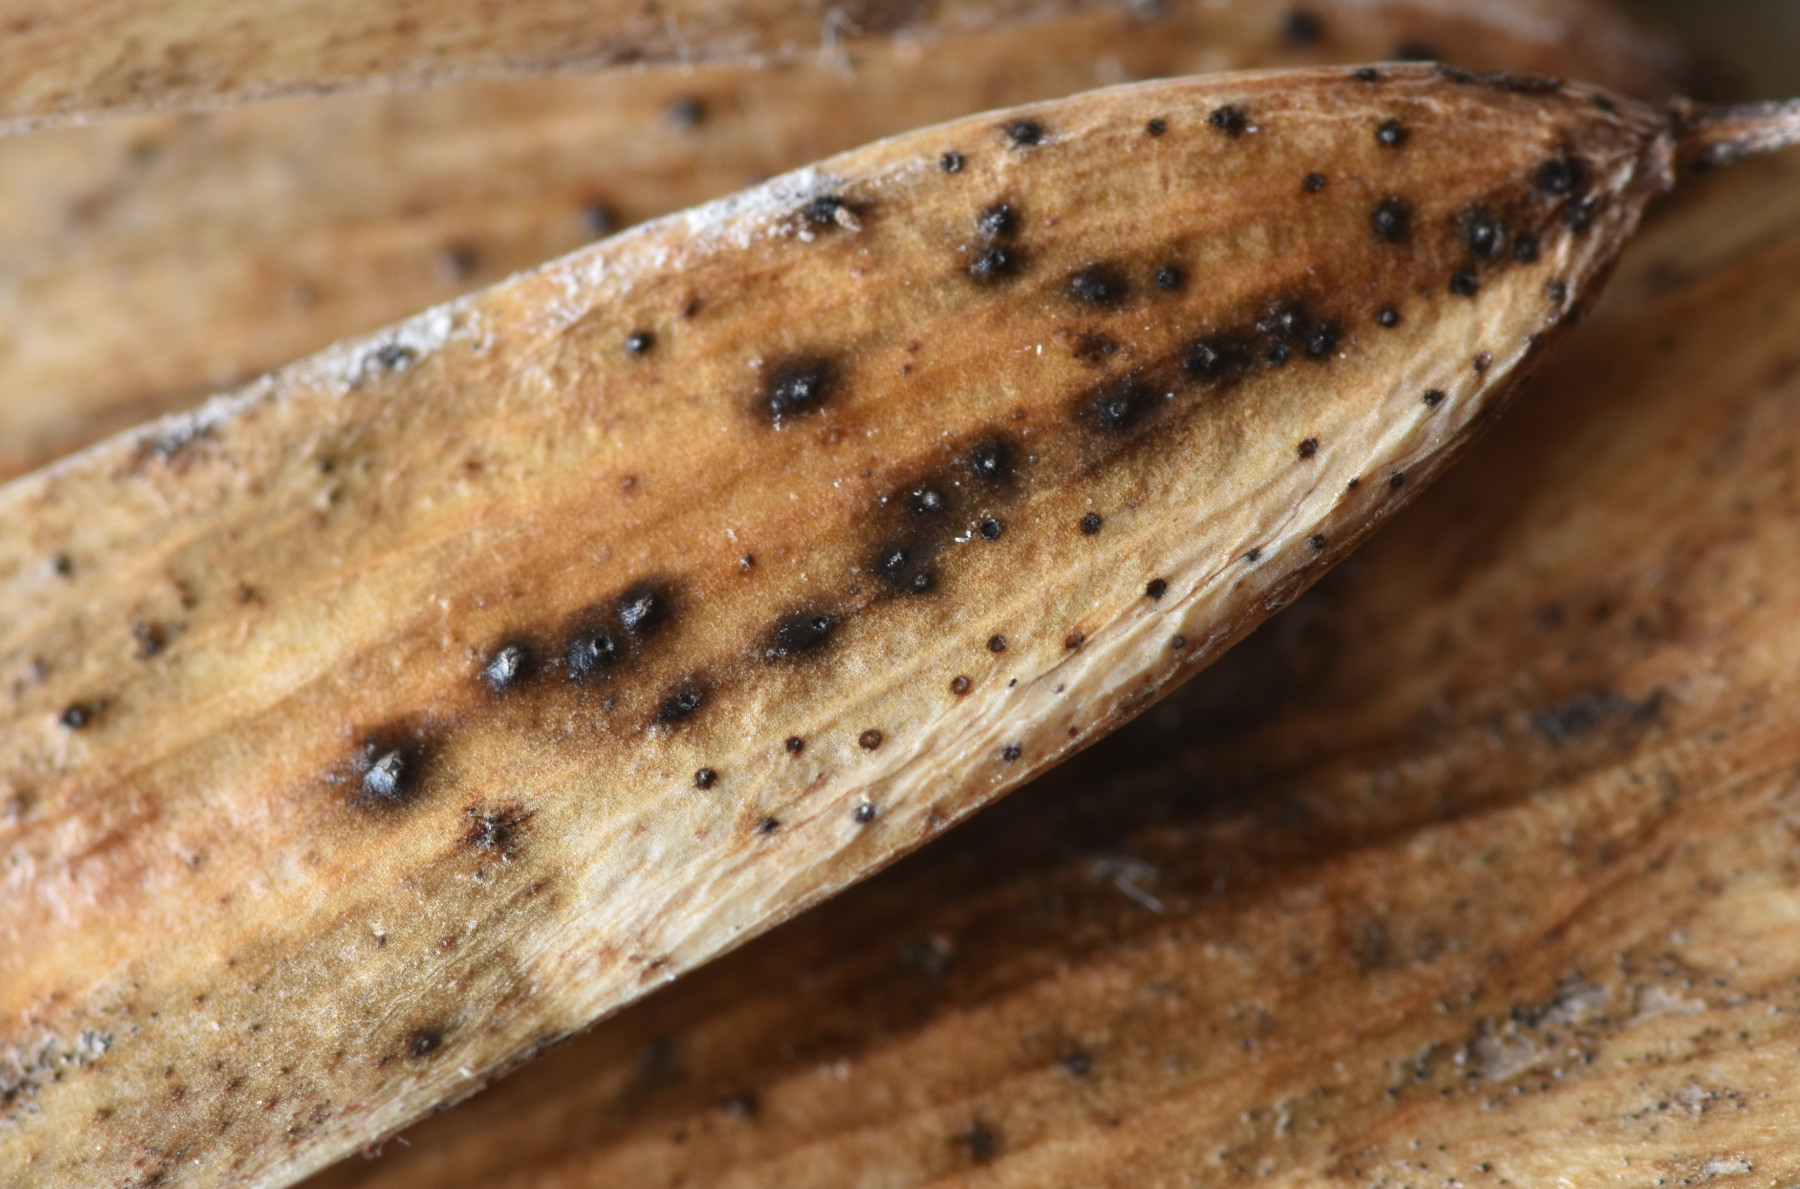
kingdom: Fungi
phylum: Ascomycota
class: Sordariomycetes
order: Diaporthales
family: Diaporthaceae
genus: Diaporthe
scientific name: Diaporthe samaricola
